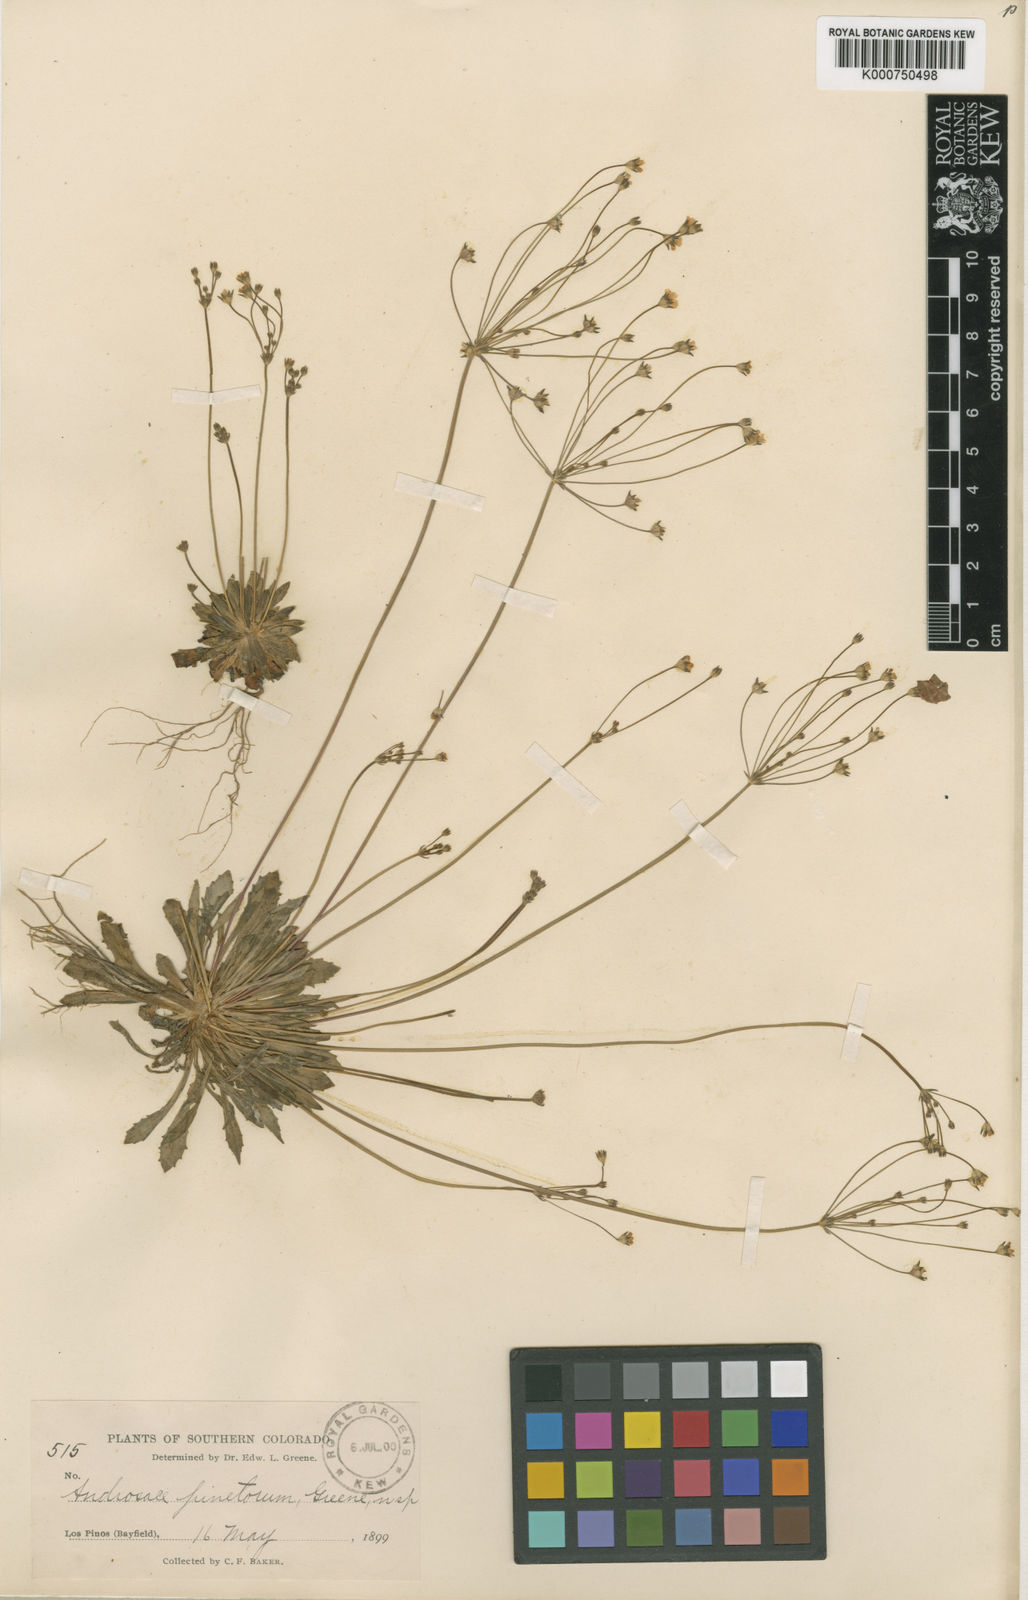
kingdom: Plantae
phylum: Tracheophyta
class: Magnoliopsida
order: Ericales
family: Primulaceae
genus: Androsace
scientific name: Androsace septentrionalis
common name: Hairy northern fairy-candelabra
